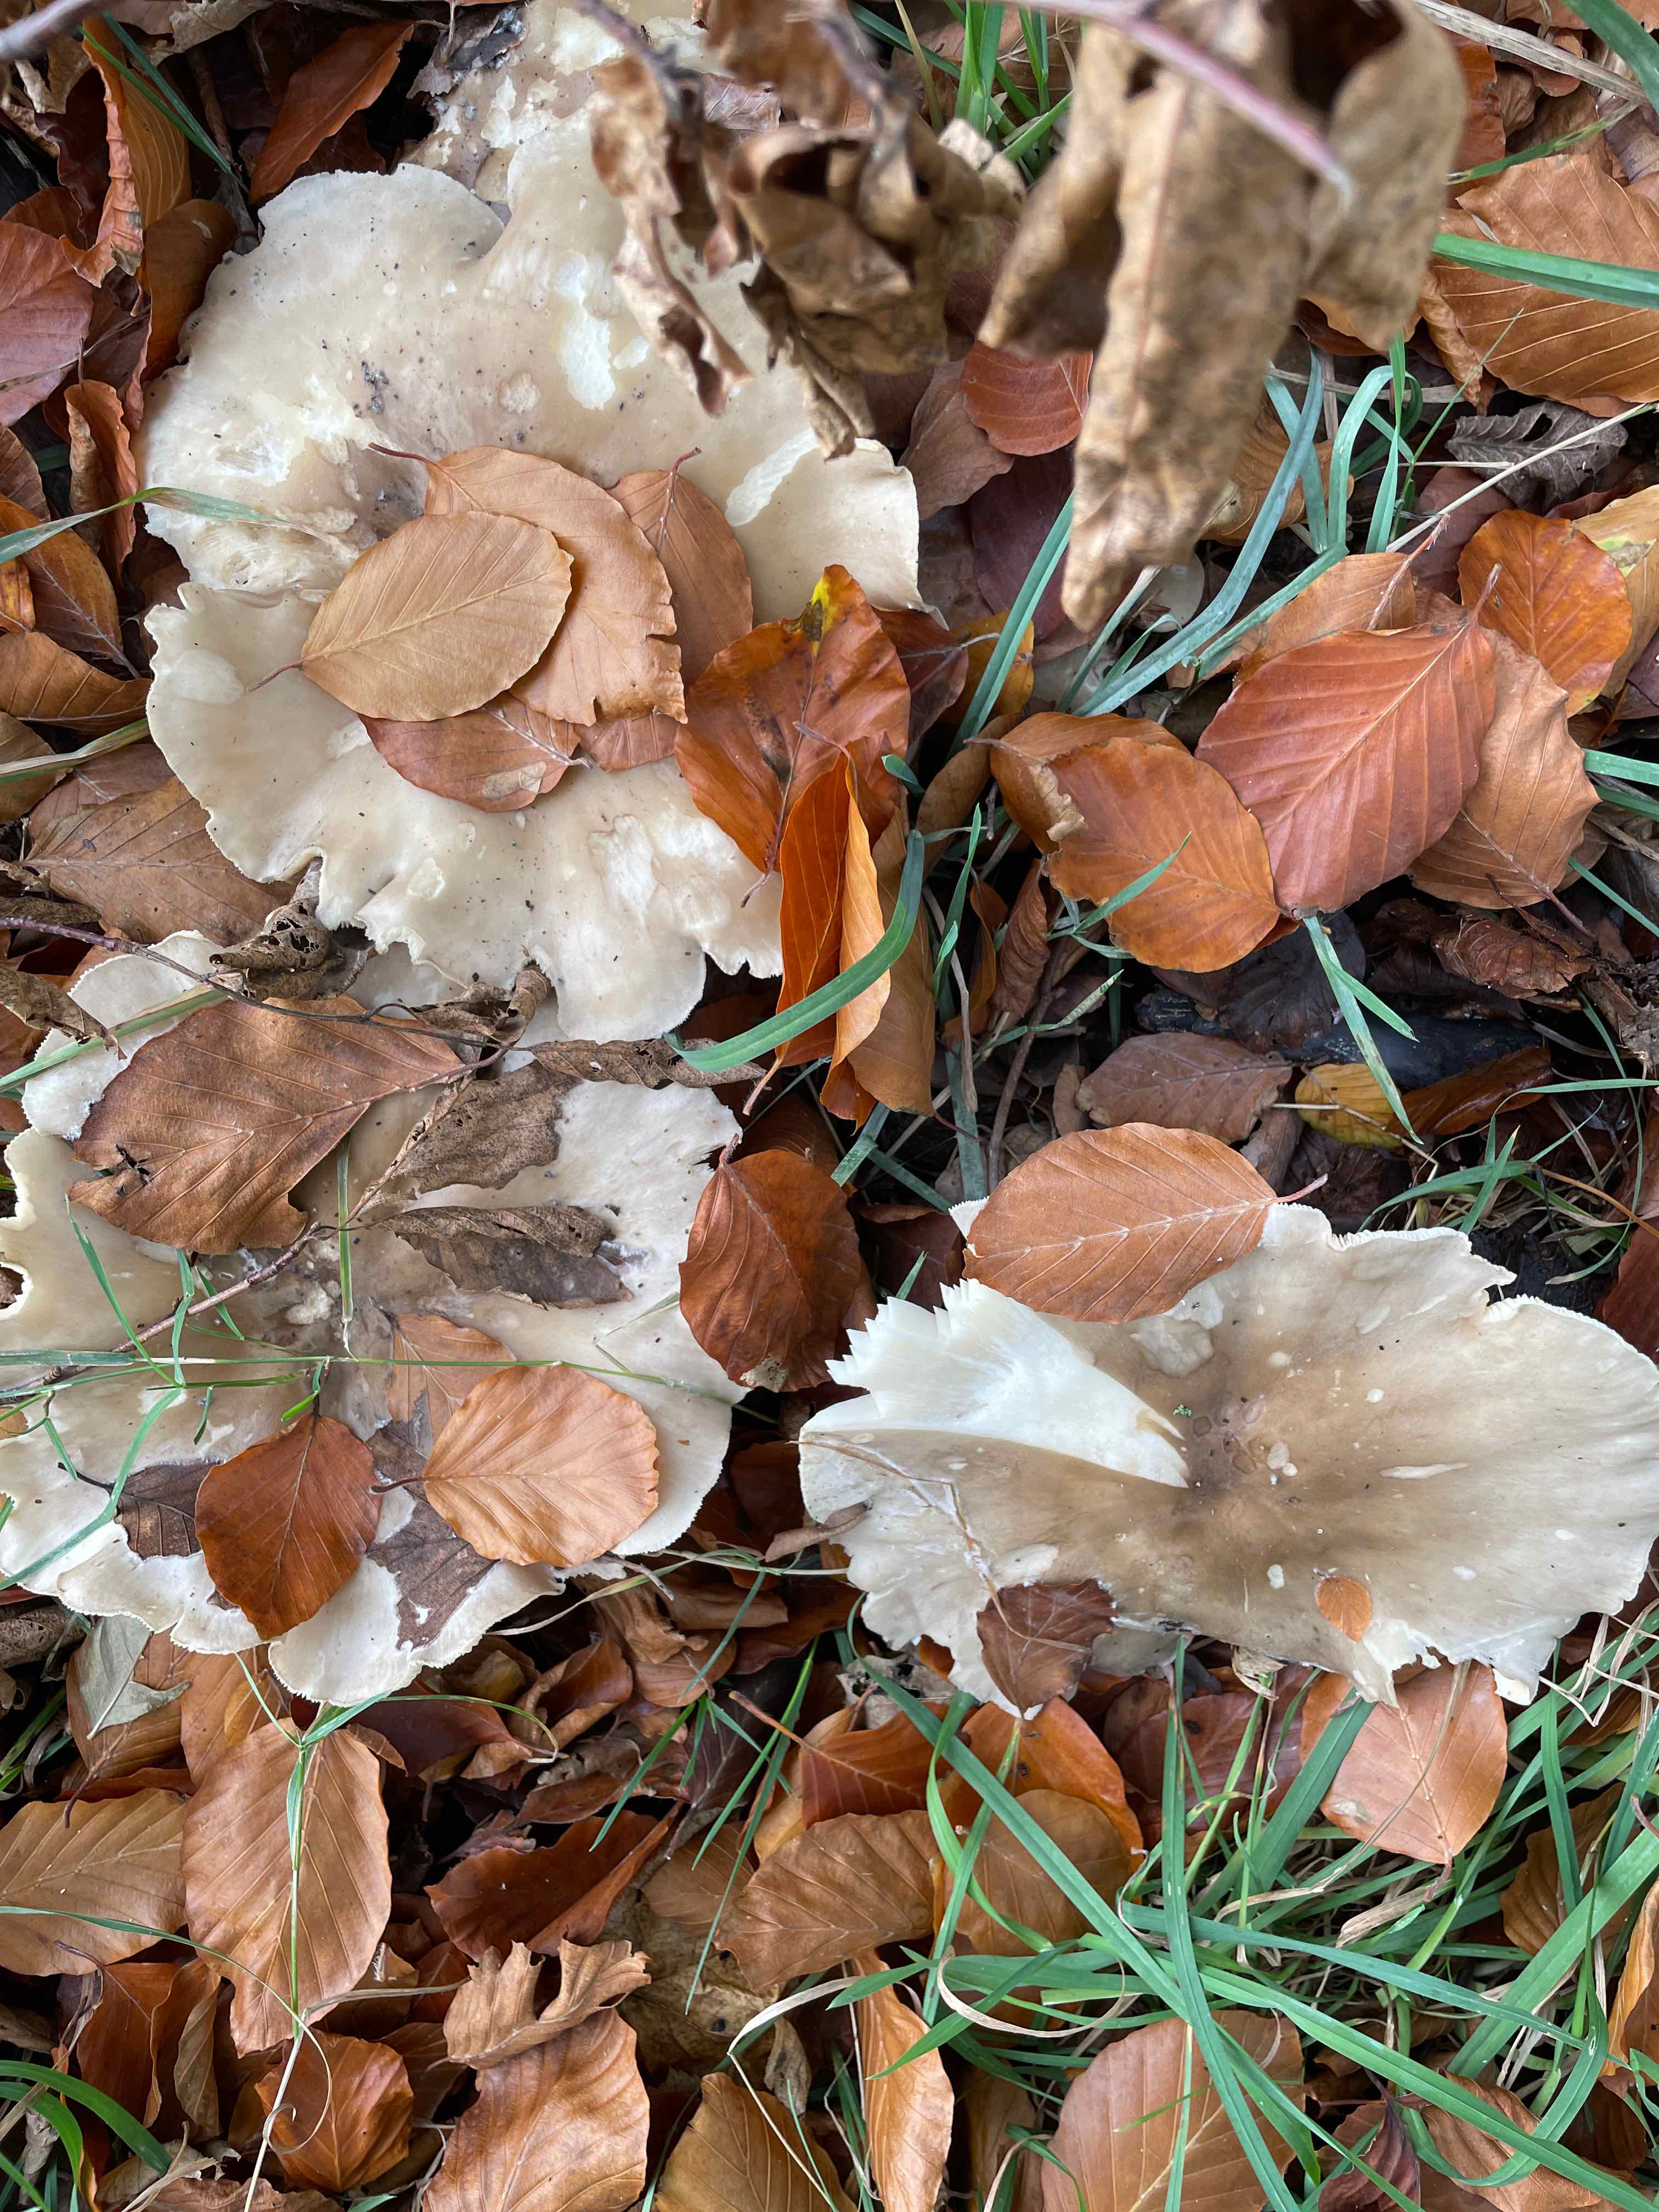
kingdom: Fungi
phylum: Basidiomycota
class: Agaricomycetes
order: Agaricales
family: Tricholomataceae
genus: Clitocybe
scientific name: Clitocybe nebularis
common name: tåge-tragthat
